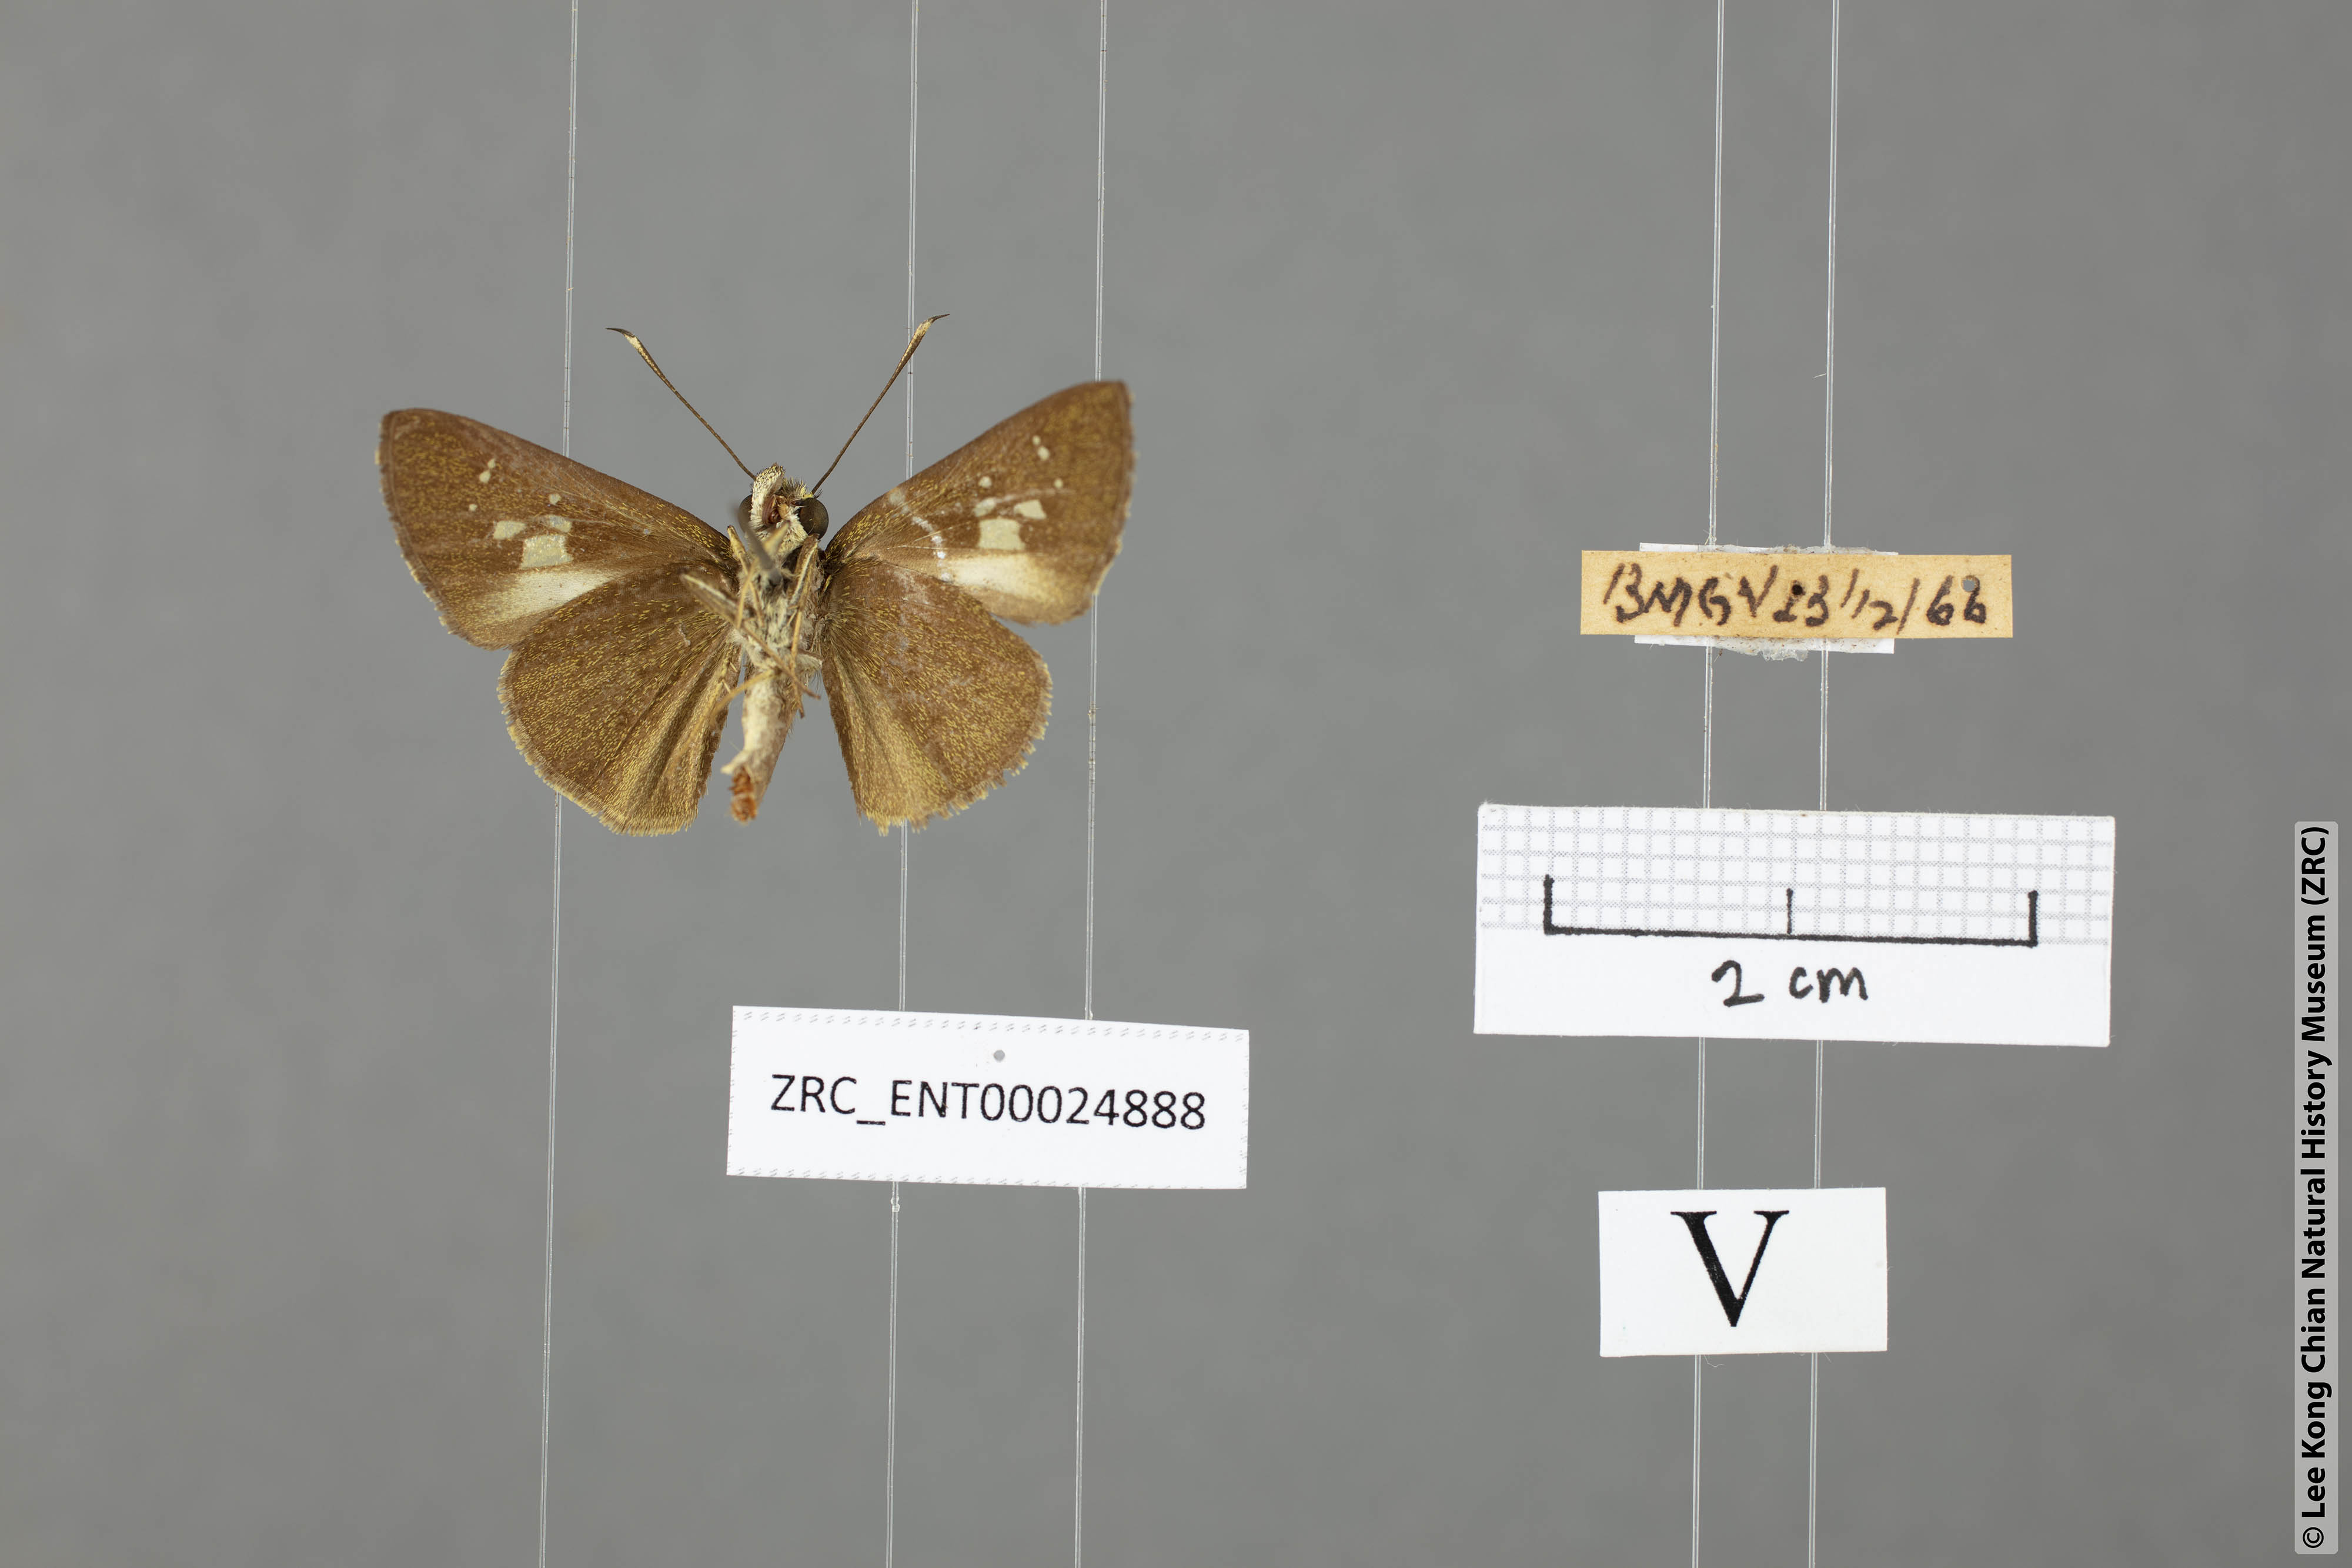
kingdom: Animalia
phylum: Arthropoda
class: Insecta
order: Lepidoptera
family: Hesperiidae
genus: Isma
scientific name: Isma
